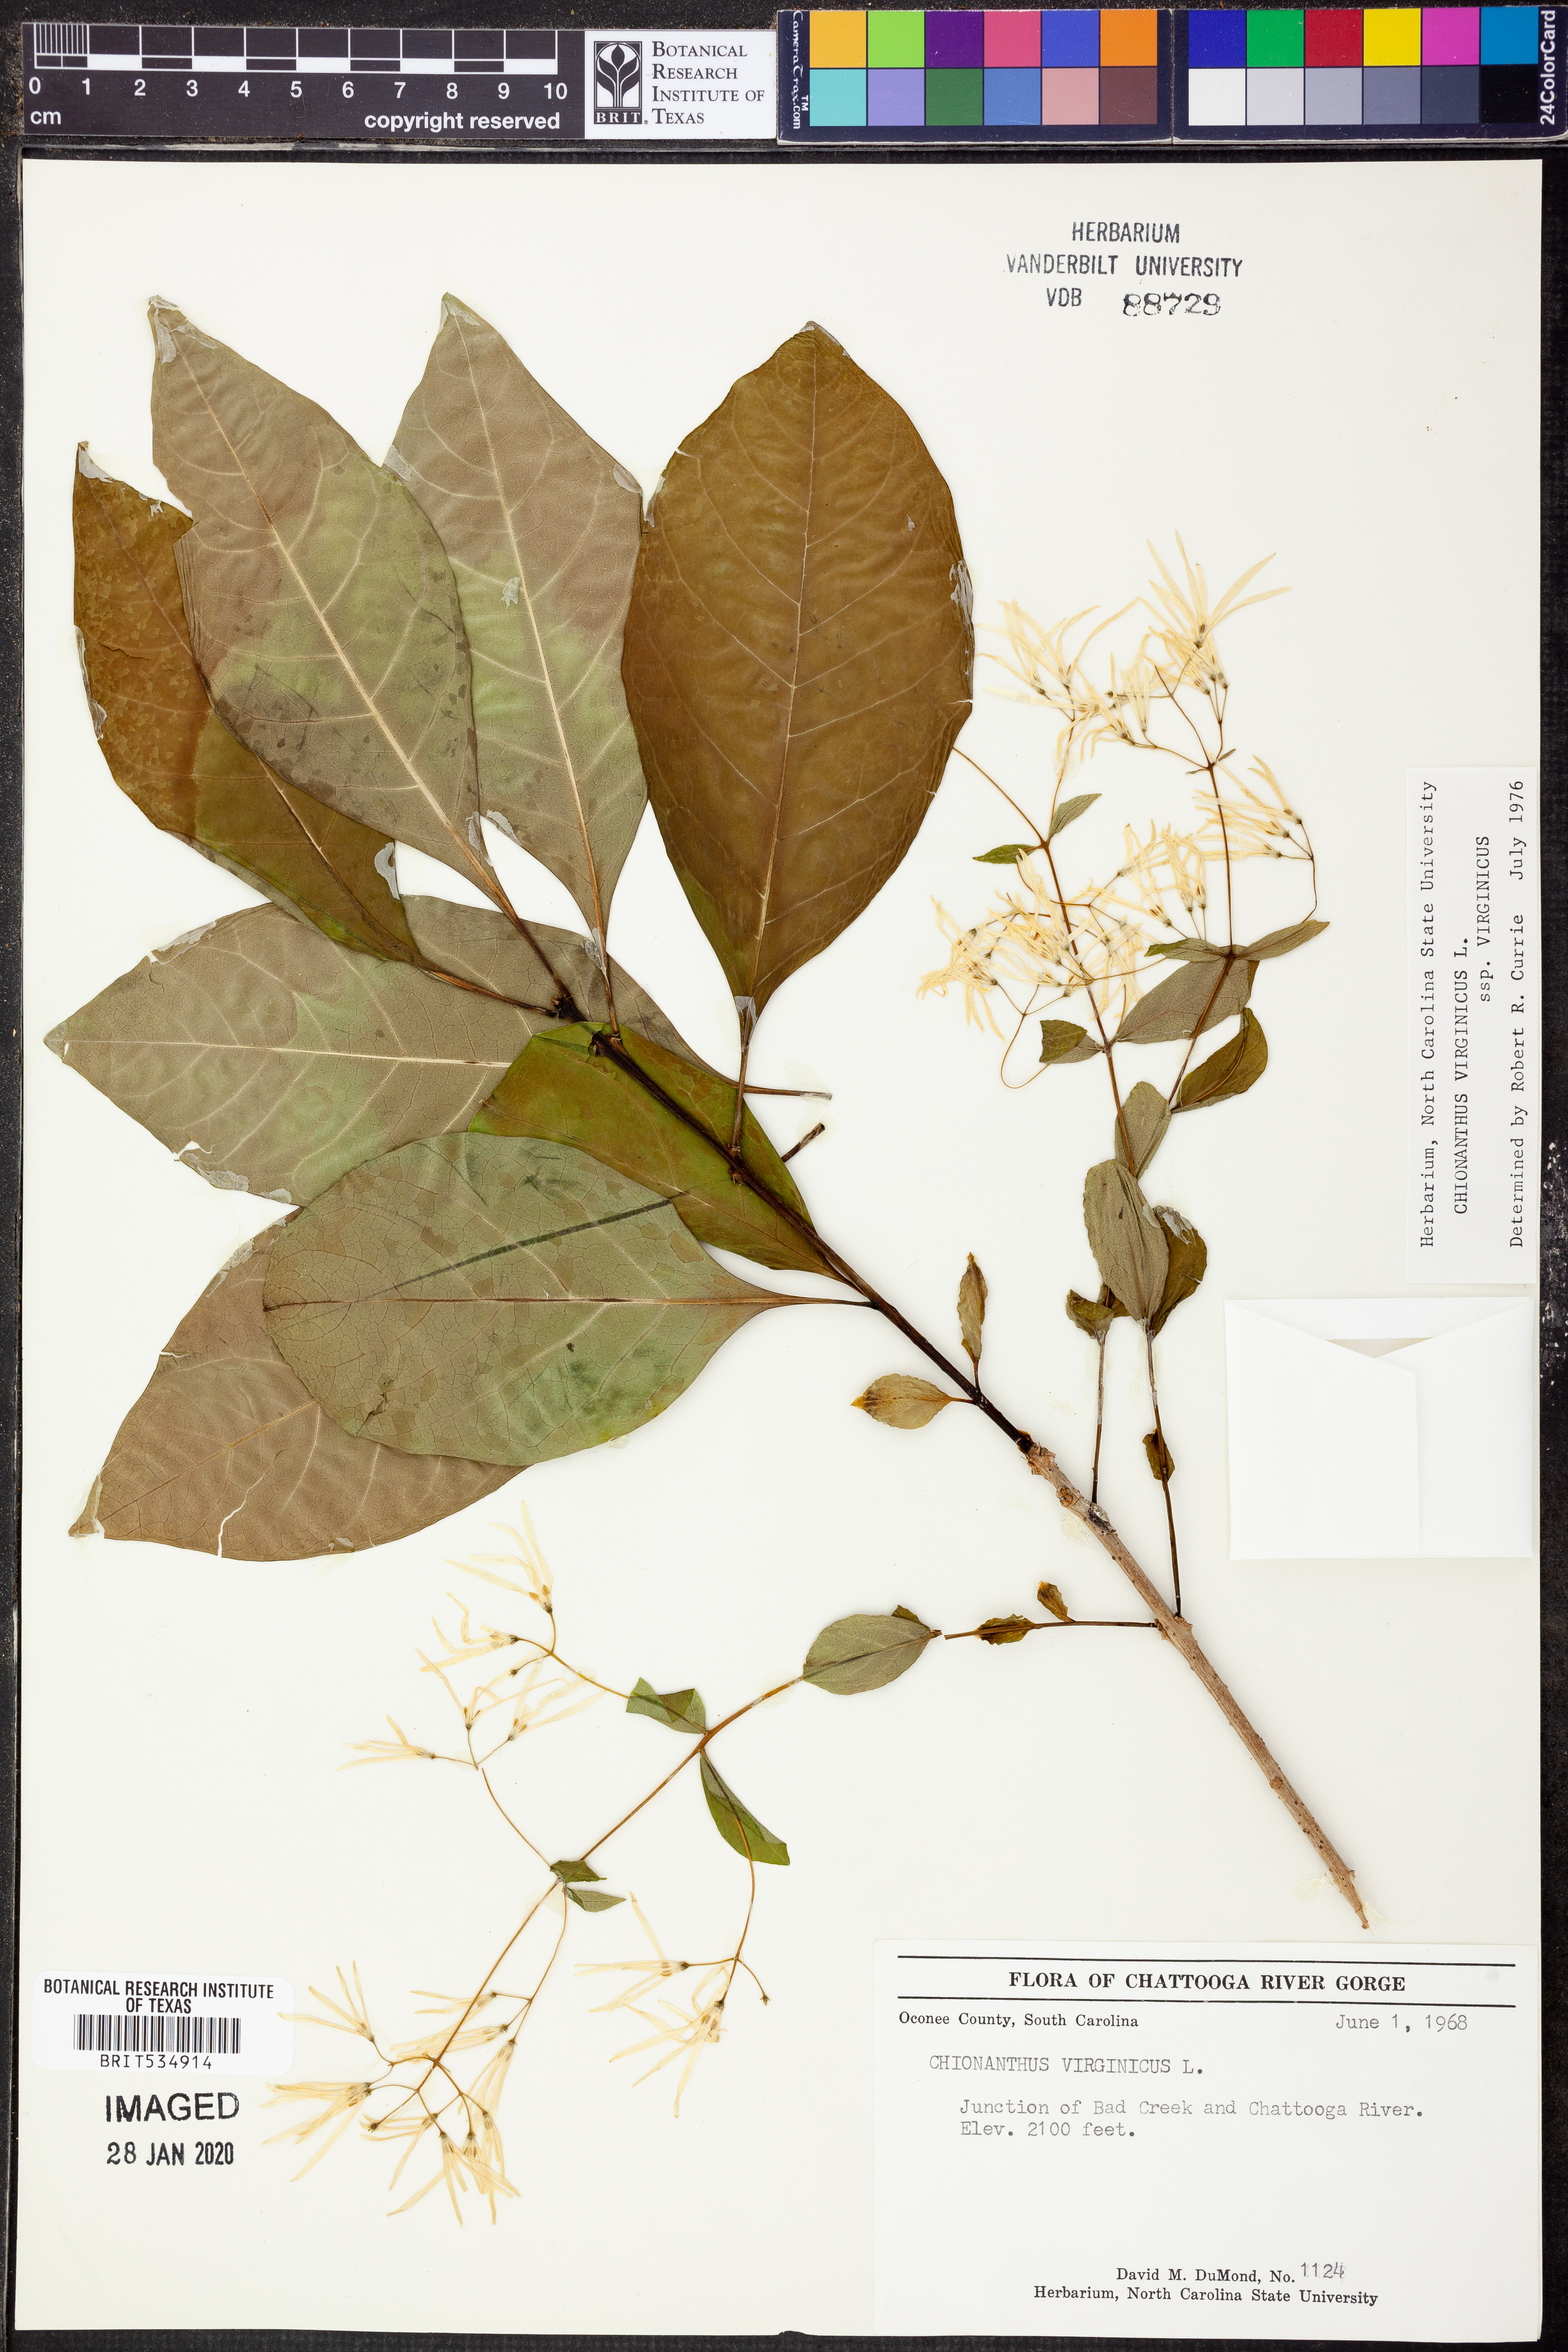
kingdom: Plantae
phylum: Tracheophyta
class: Magnoliopsida
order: Lamiales
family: Oleaceae
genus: Chionanthus
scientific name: Chionanthus virginicus
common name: American fringetree
